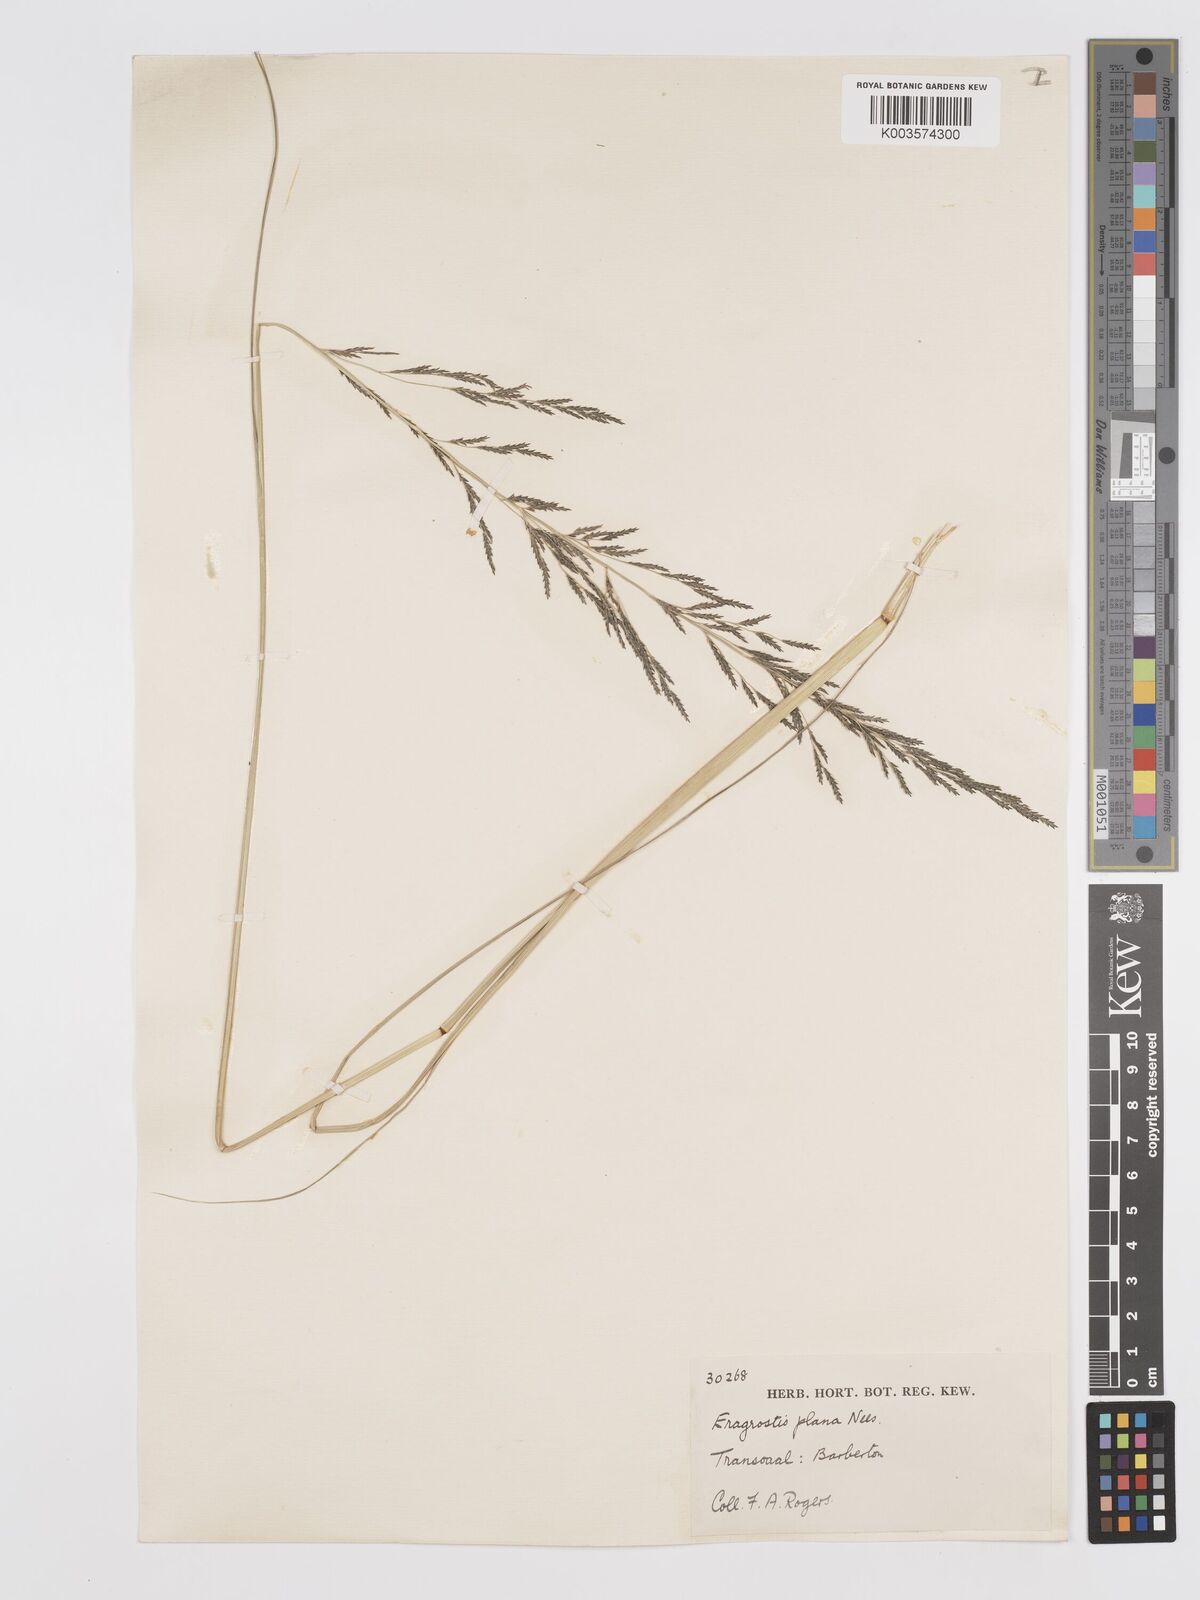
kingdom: Plantae
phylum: Tracheophyta
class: Liliopsida
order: Poales
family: Poaceae
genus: Eragrostis
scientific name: Eragrostis plana
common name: South african lovegrass
